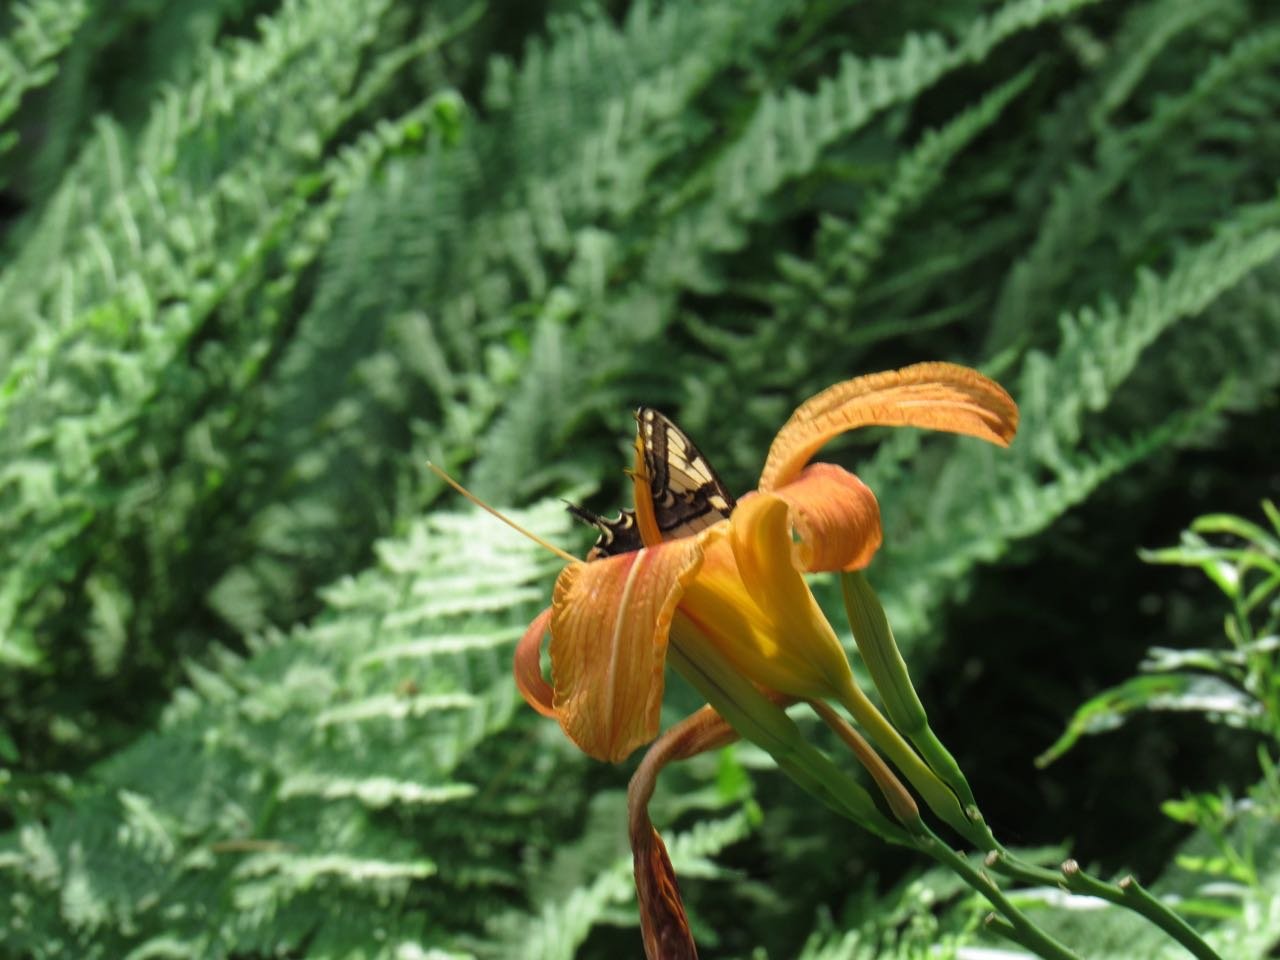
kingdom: Animalia
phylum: Arthropoda
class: Insecta
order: Lepidoptera
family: Papilionidae
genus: Pterourus
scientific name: Pterourus
